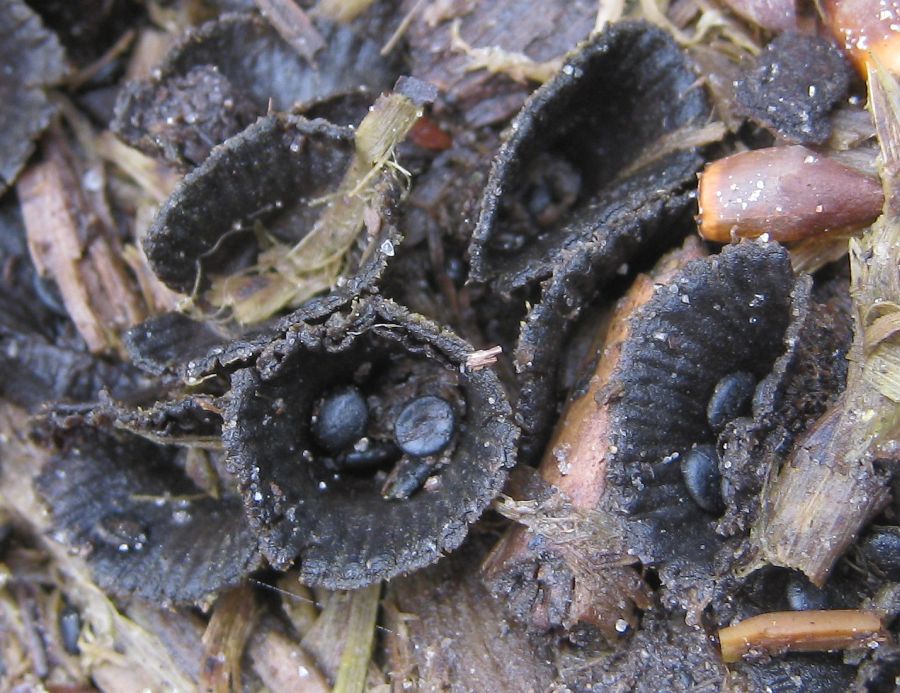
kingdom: Fungi
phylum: Basidiomycota
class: Agaricomycetes
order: Agaricales
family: Agaricaceae
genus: Cyathus
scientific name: Cyathus striatus
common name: stribet redesvamp
